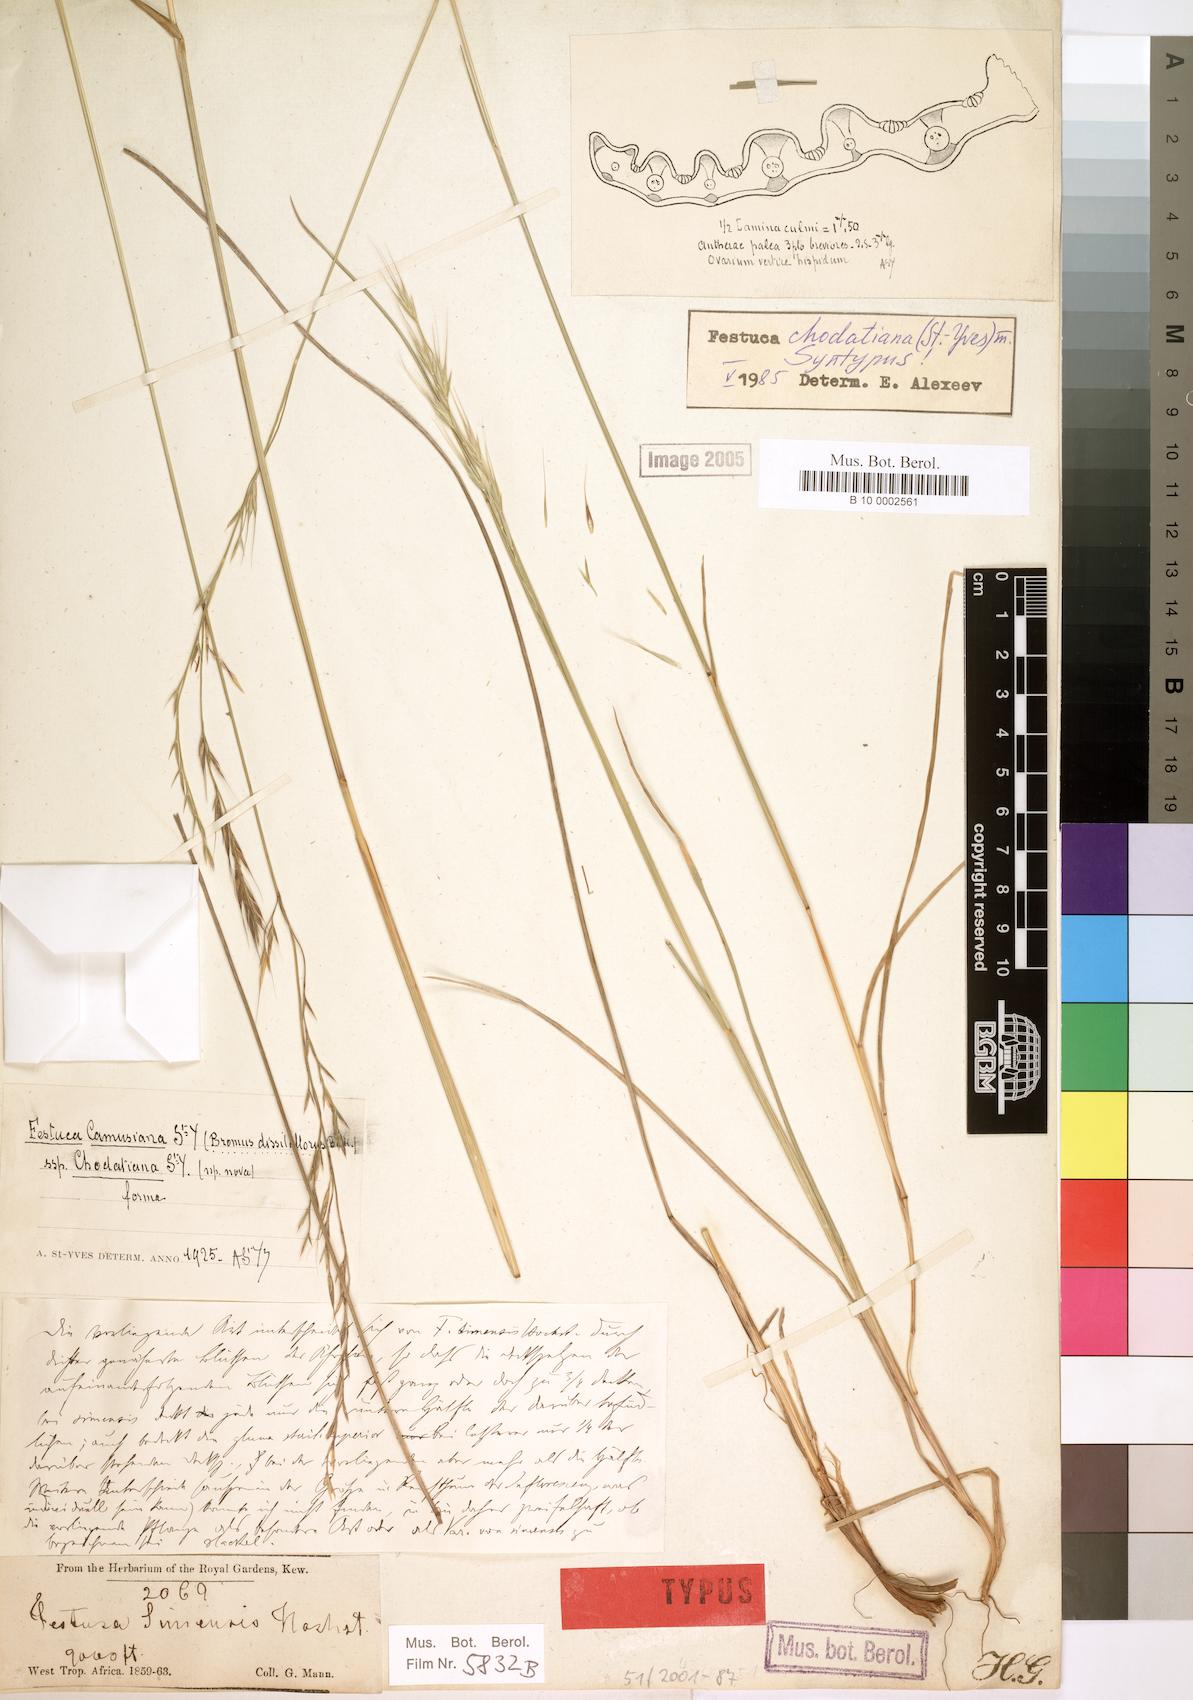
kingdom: Plantae
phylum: Tracheophyta
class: Liliopsida
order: Poales
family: Poaceae
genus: Festuca
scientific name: Festuca chodatiana
